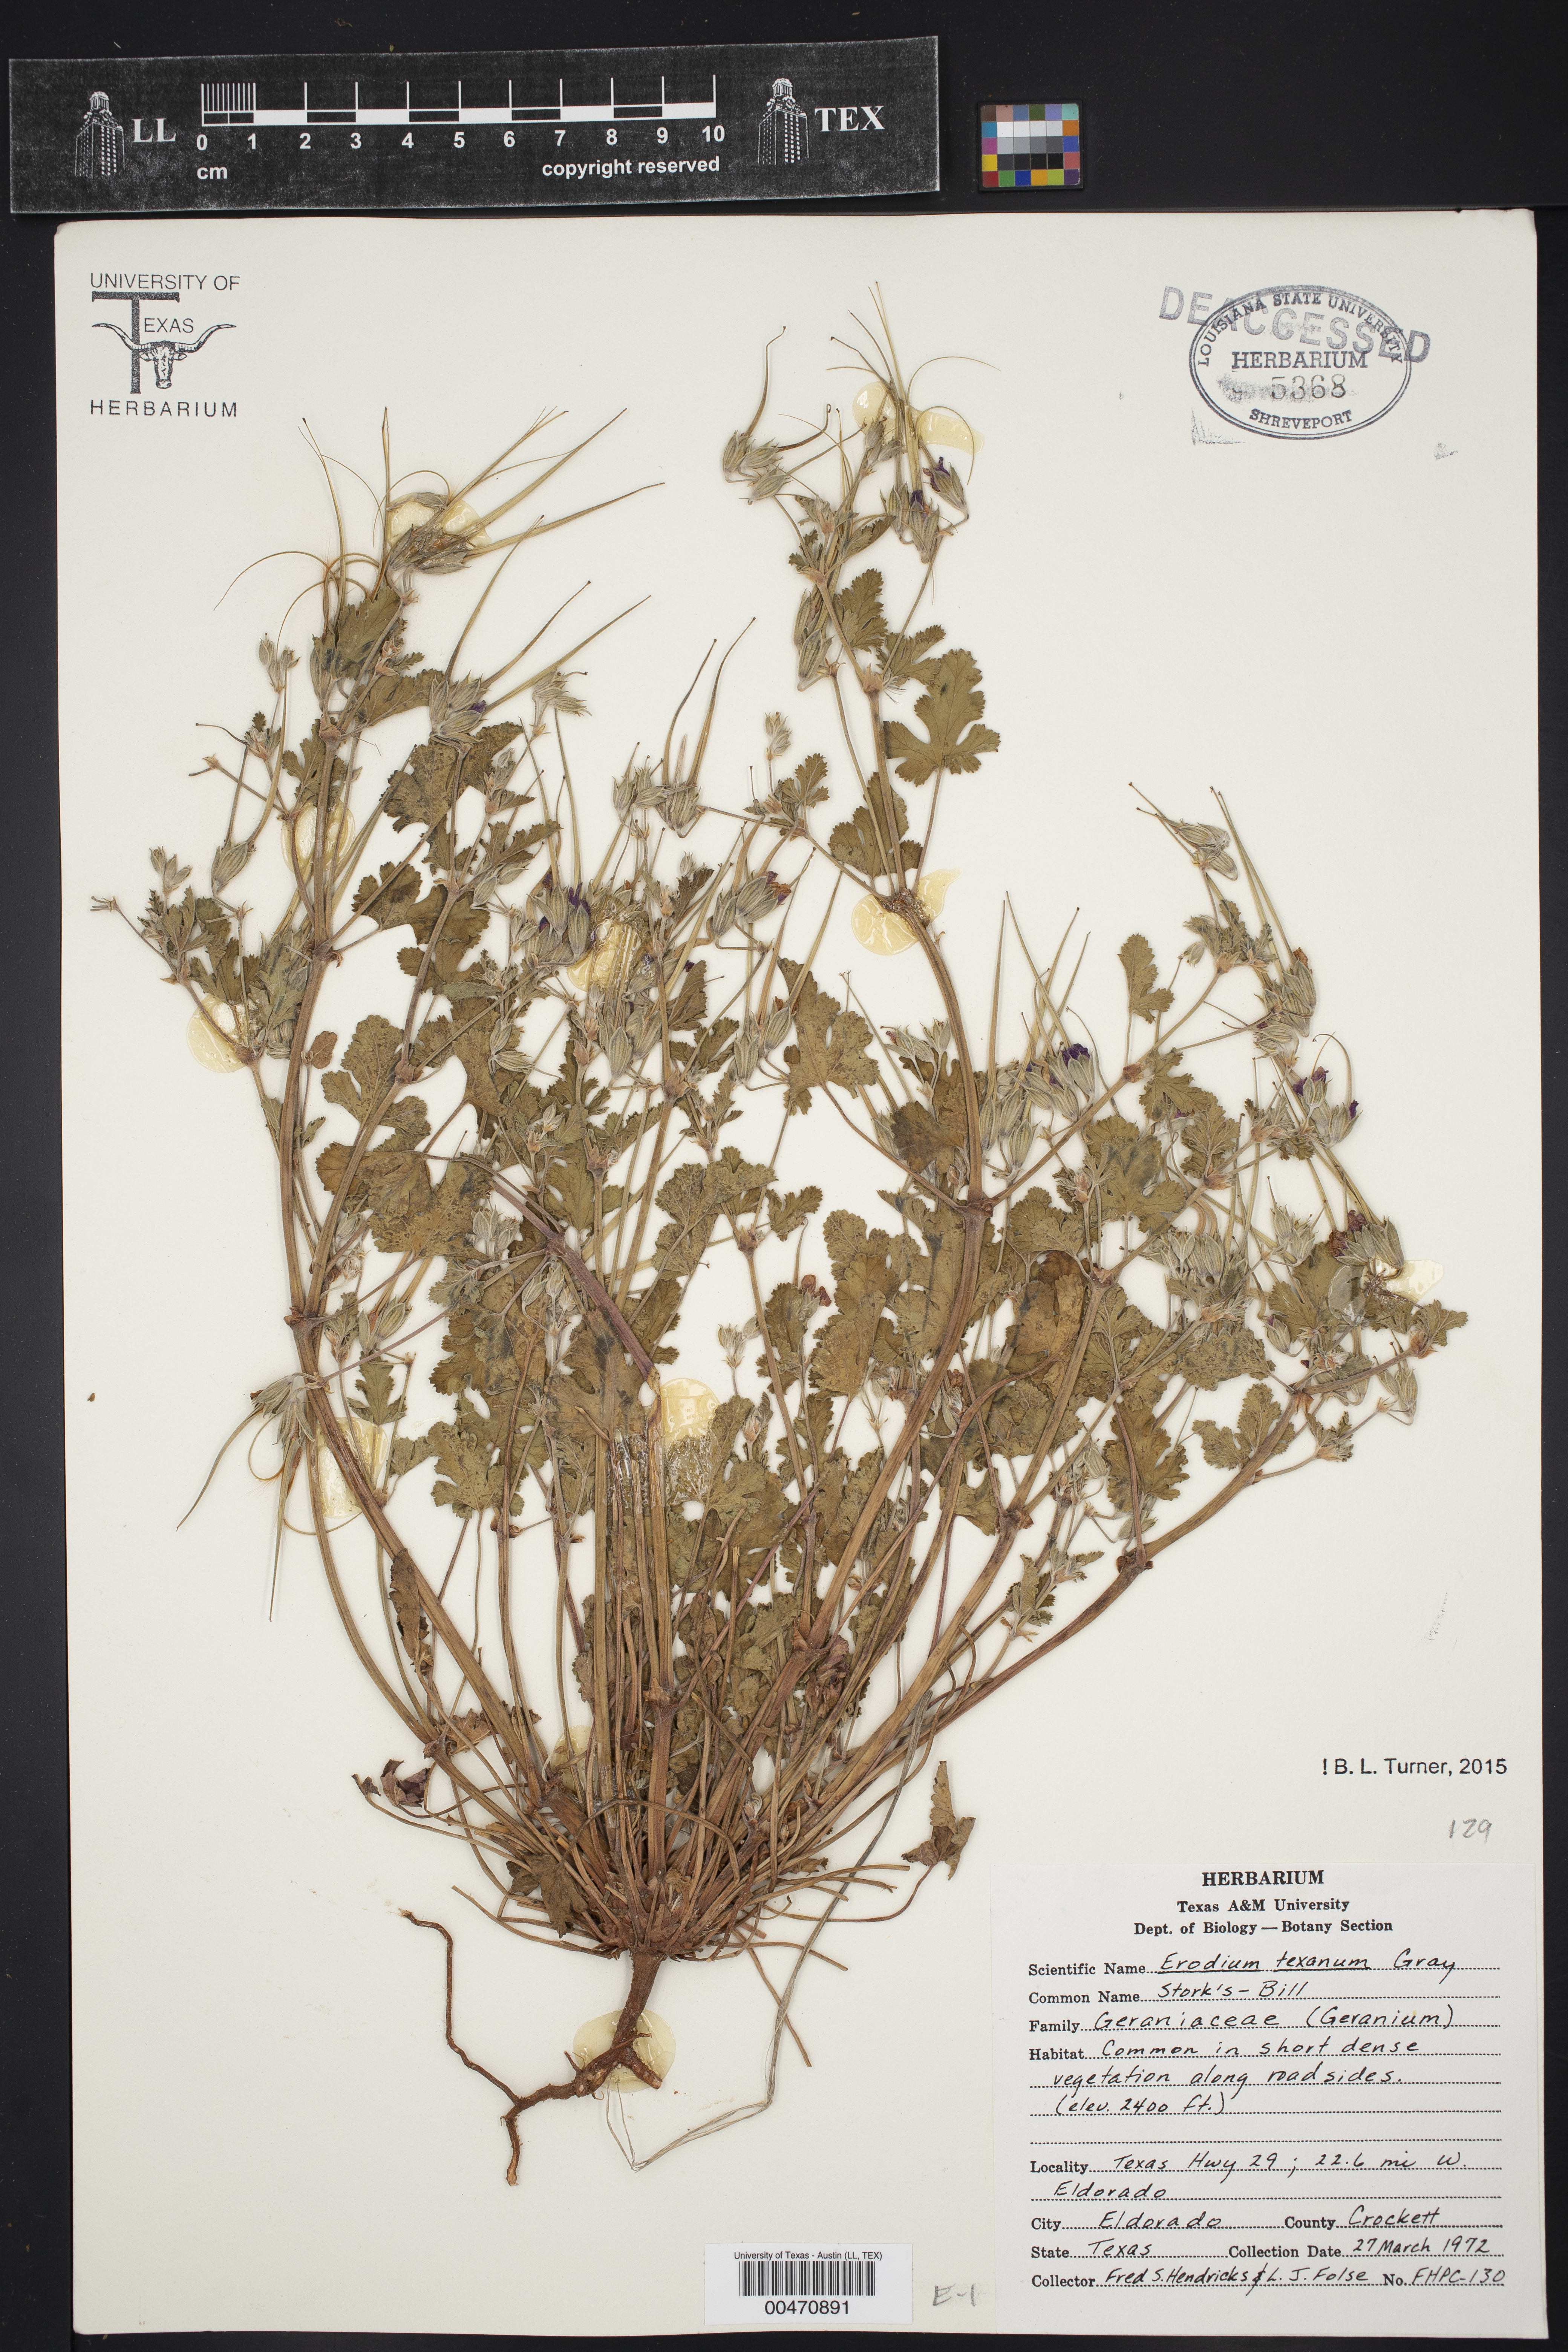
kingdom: Plantae
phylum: Tracheophyta
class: Magnoliopsida
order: Geraniales
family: Geraniaceae
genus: Erodium
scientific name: Erodium texanum
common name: Texas stork's-bill
